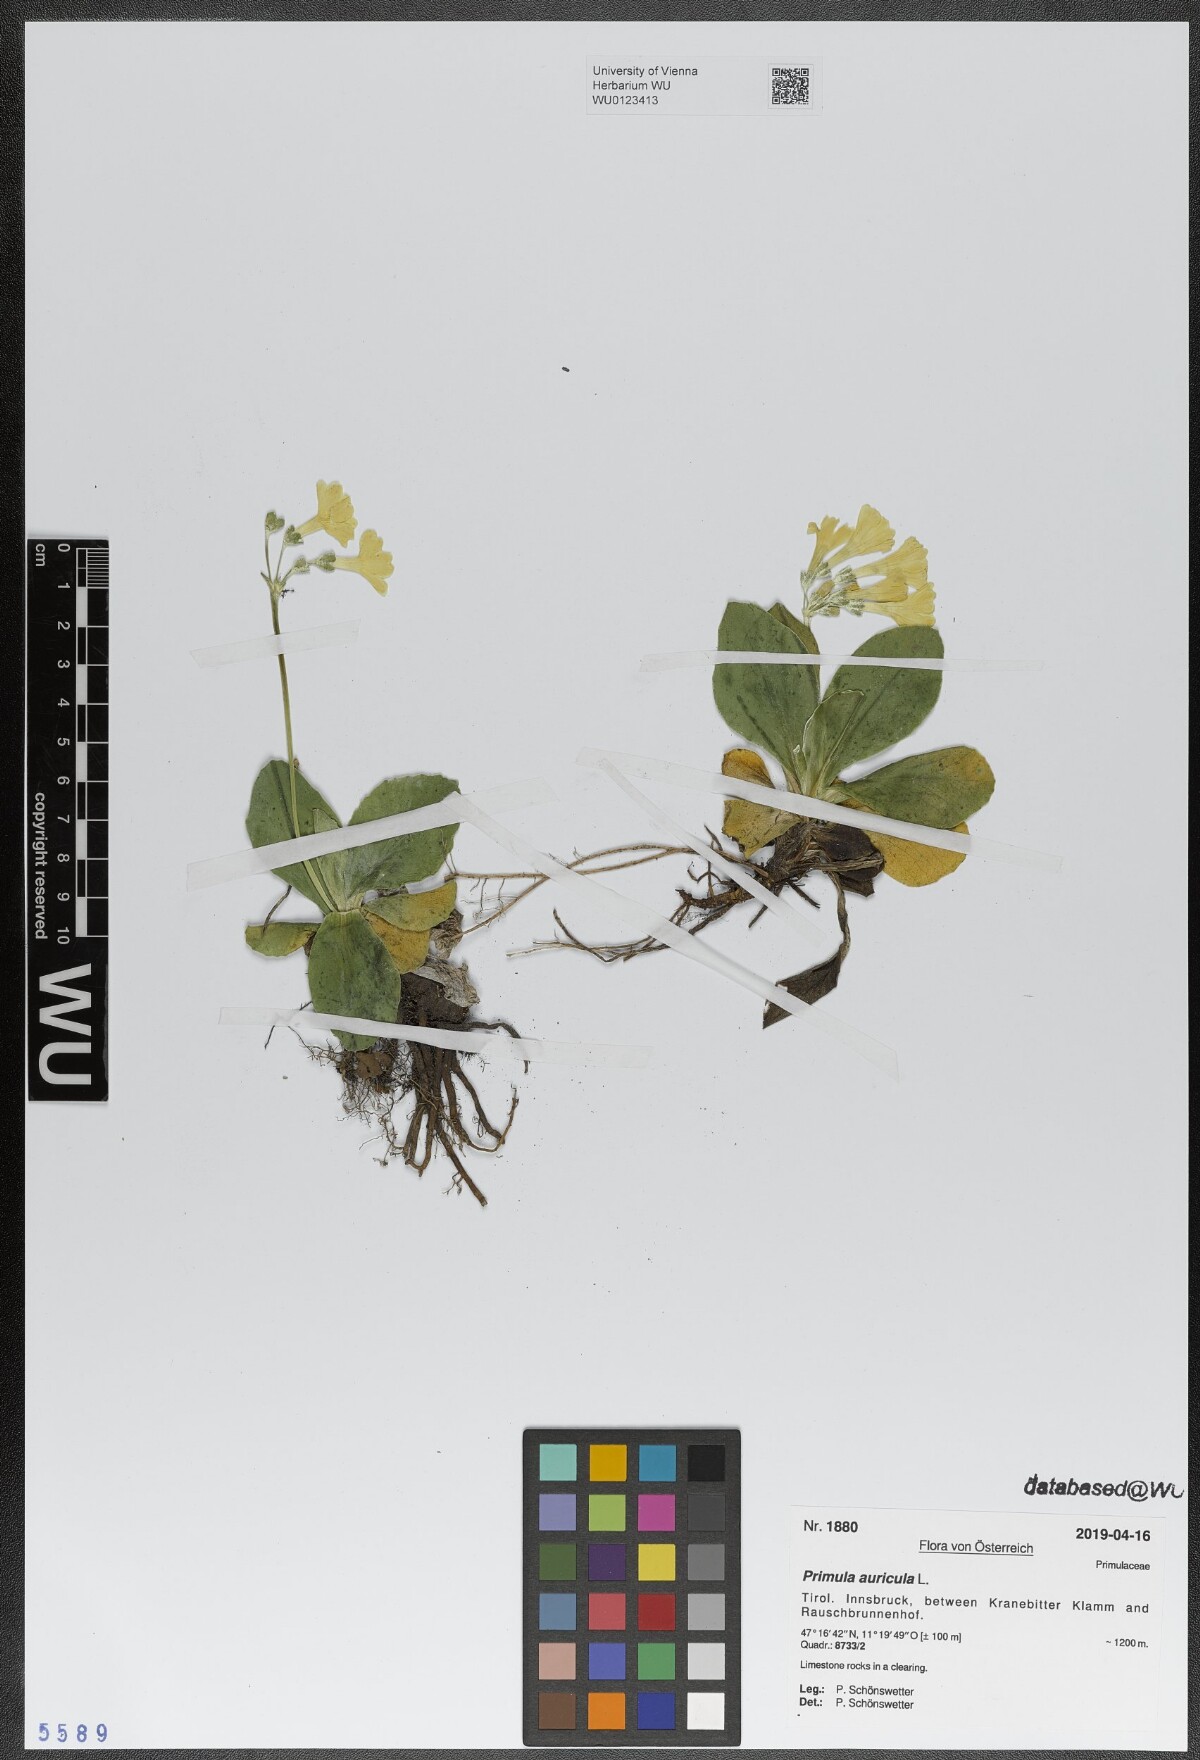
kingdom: Plantae
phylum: Tracheophyta
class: Magnoliopsida
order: Ericales
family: Primulaceae
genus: Primula
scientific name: Primula auricula
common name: Auricula
